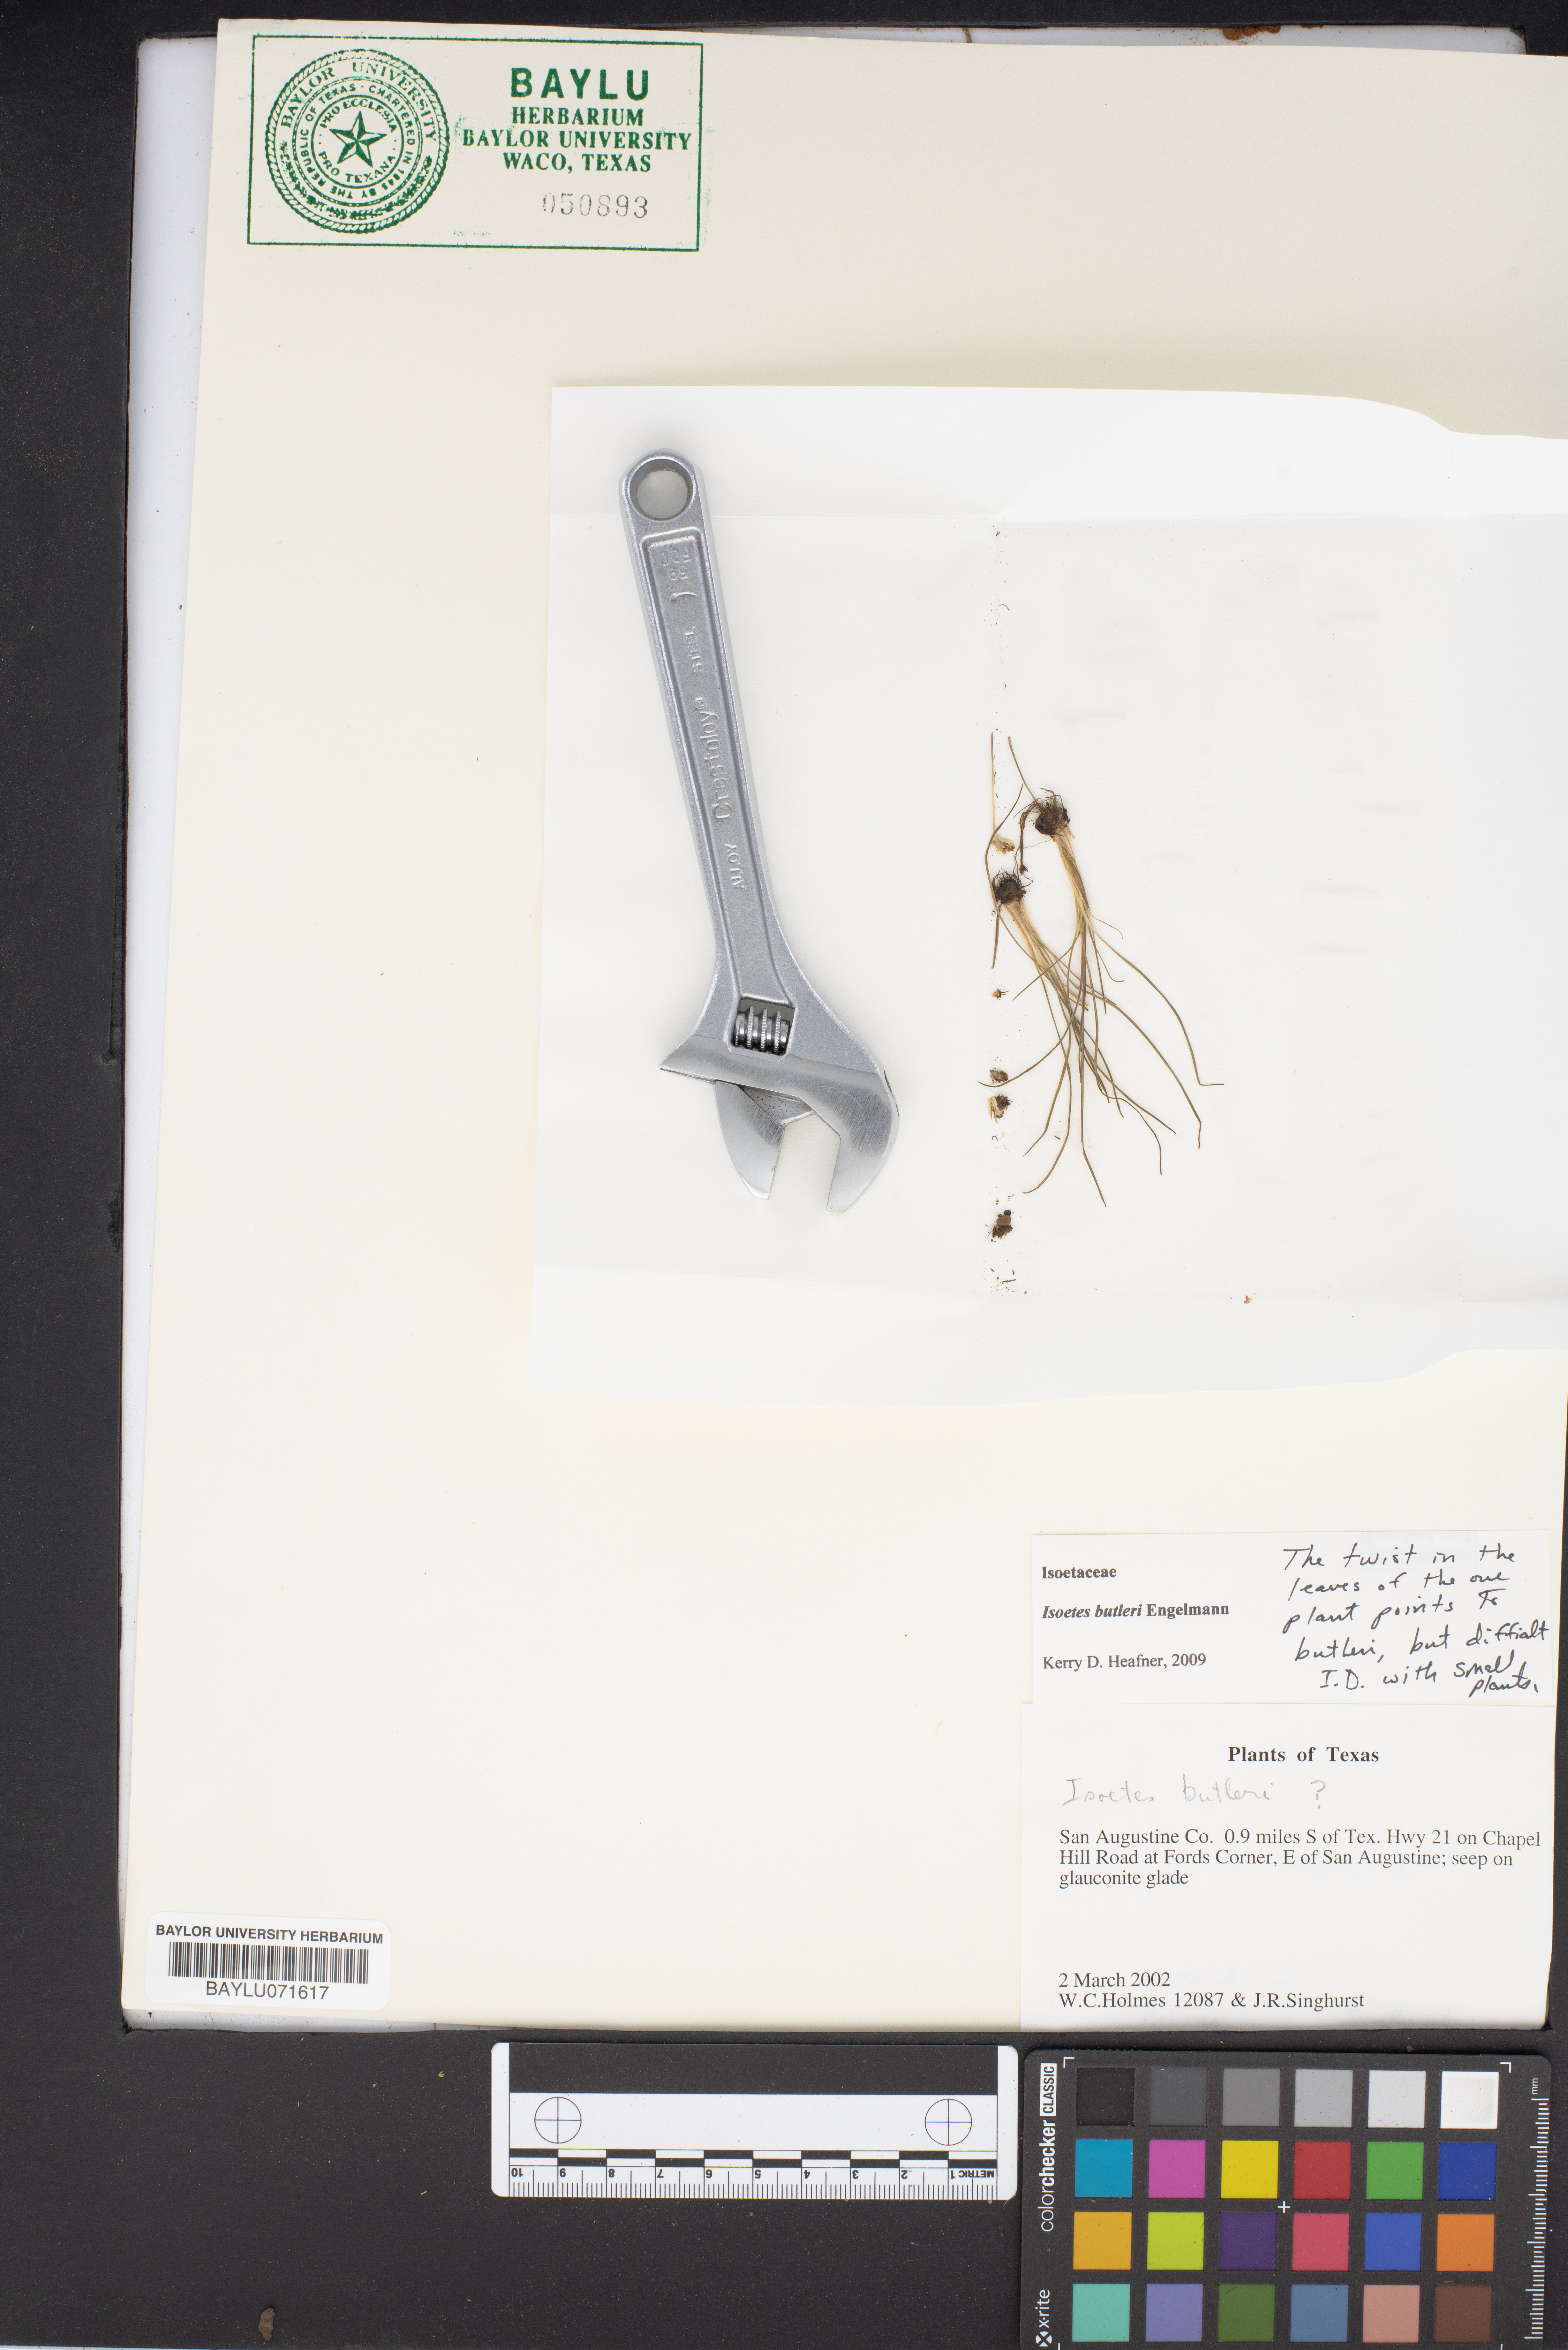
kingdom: Plantae
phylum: Tracheophyta
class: Lycopodiopsida
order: Isoetales
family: Isoetaceae
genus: Isoetes
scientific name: Isoetes butleri
